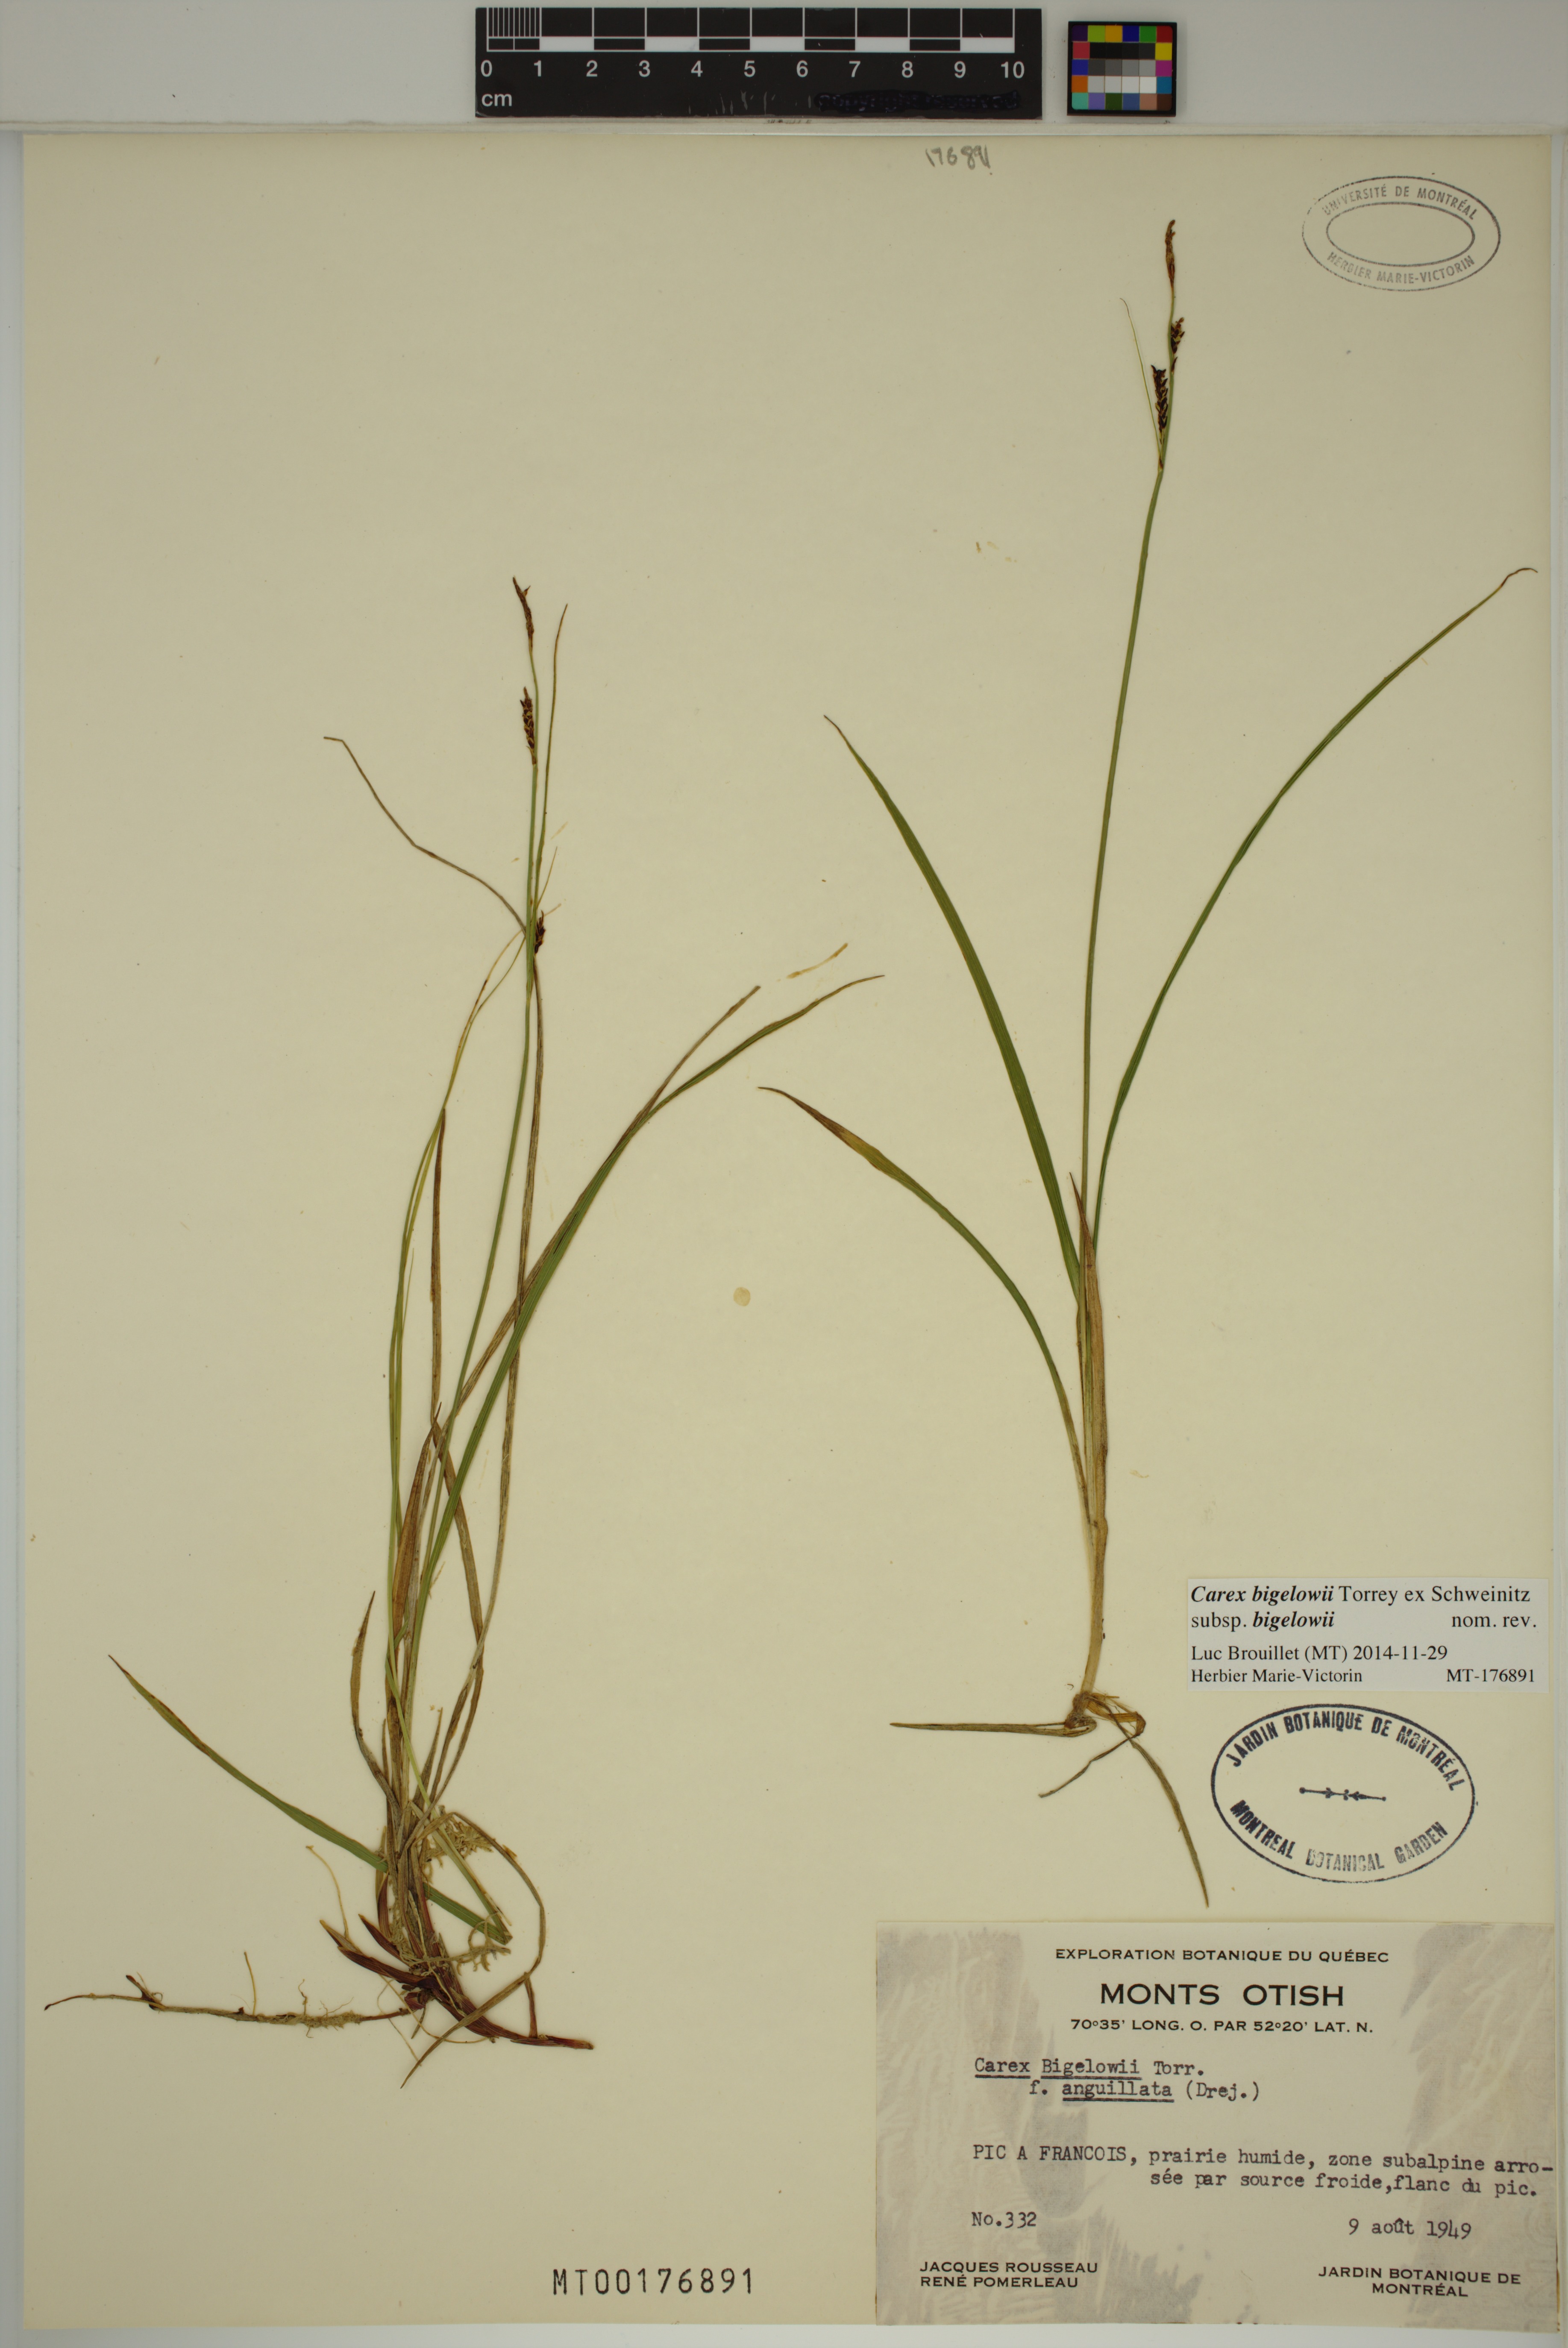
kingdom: Plantae
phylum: Tracheophyta
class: Liliopsida
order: Poales
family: Cyperaceae
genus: Carex
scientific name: Carex bigelowii
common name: Stiff sedge
